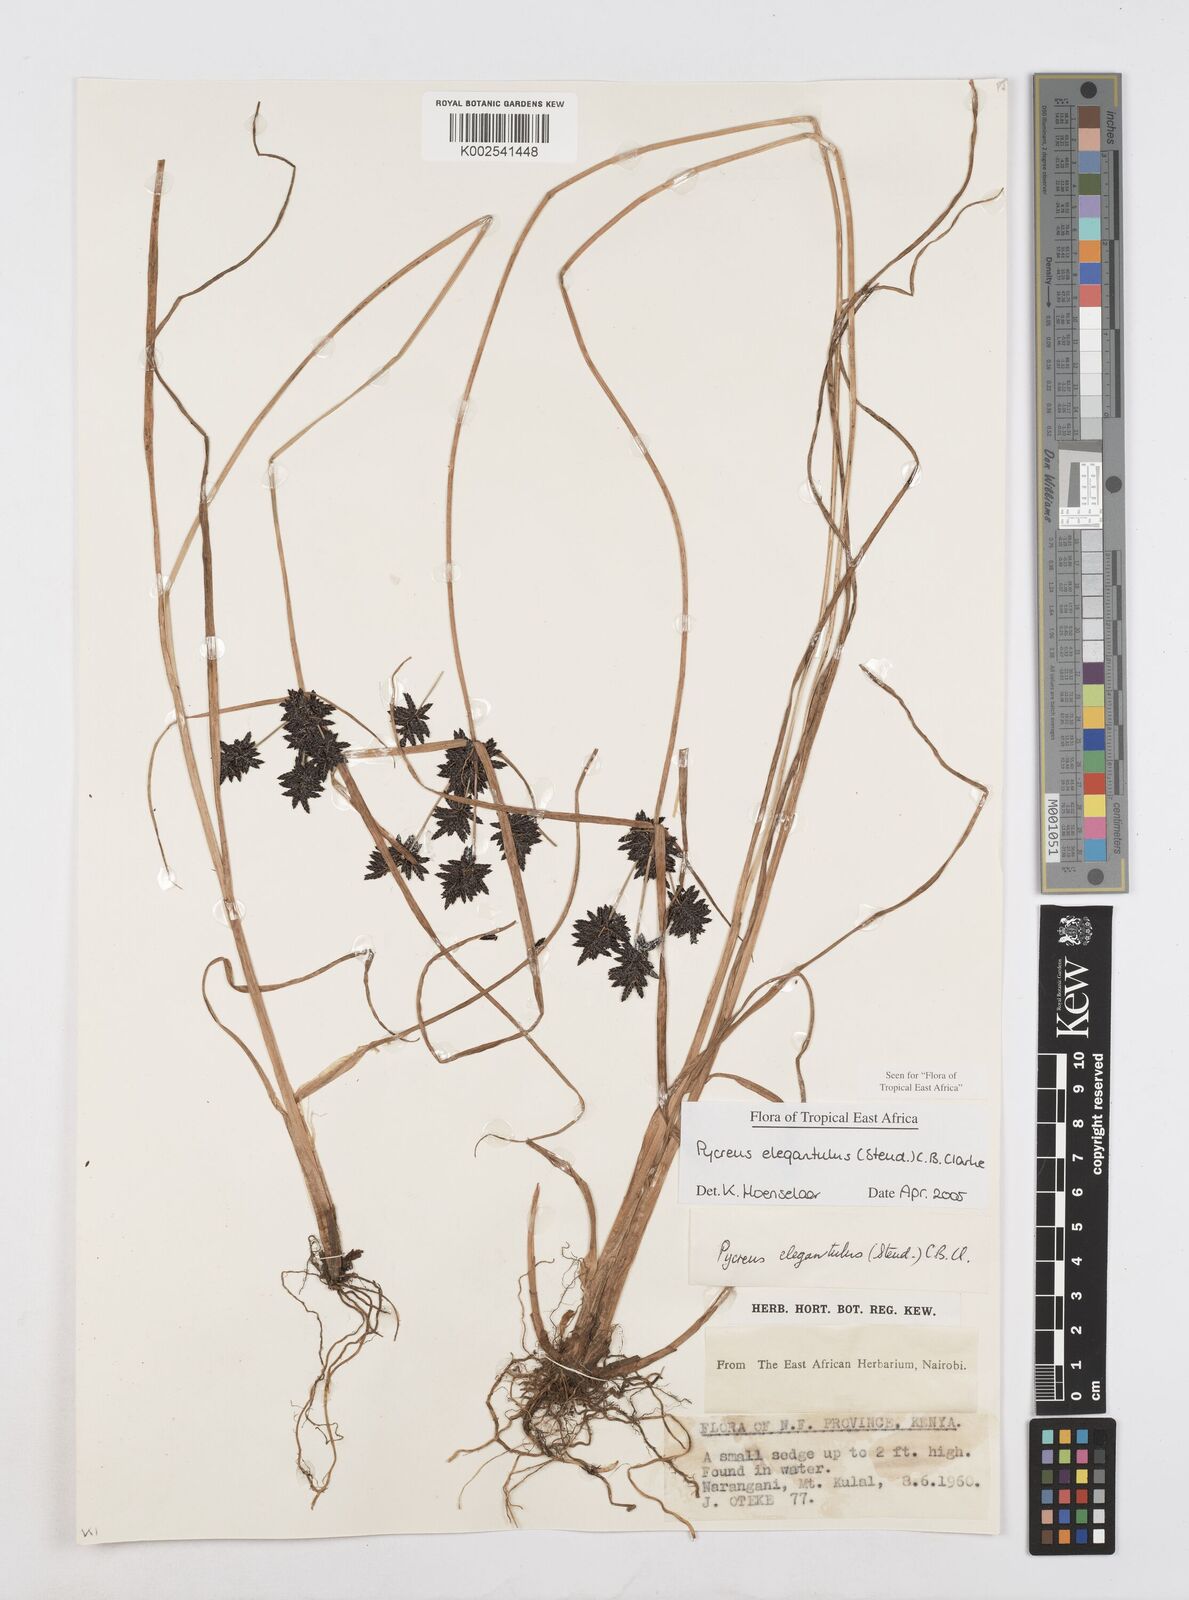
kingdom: Plantae
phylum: Tracheophyta
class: Liliopsida
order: Poales
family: Cyperaceae
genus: Cyperus
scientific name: Cyperus elegantulus
